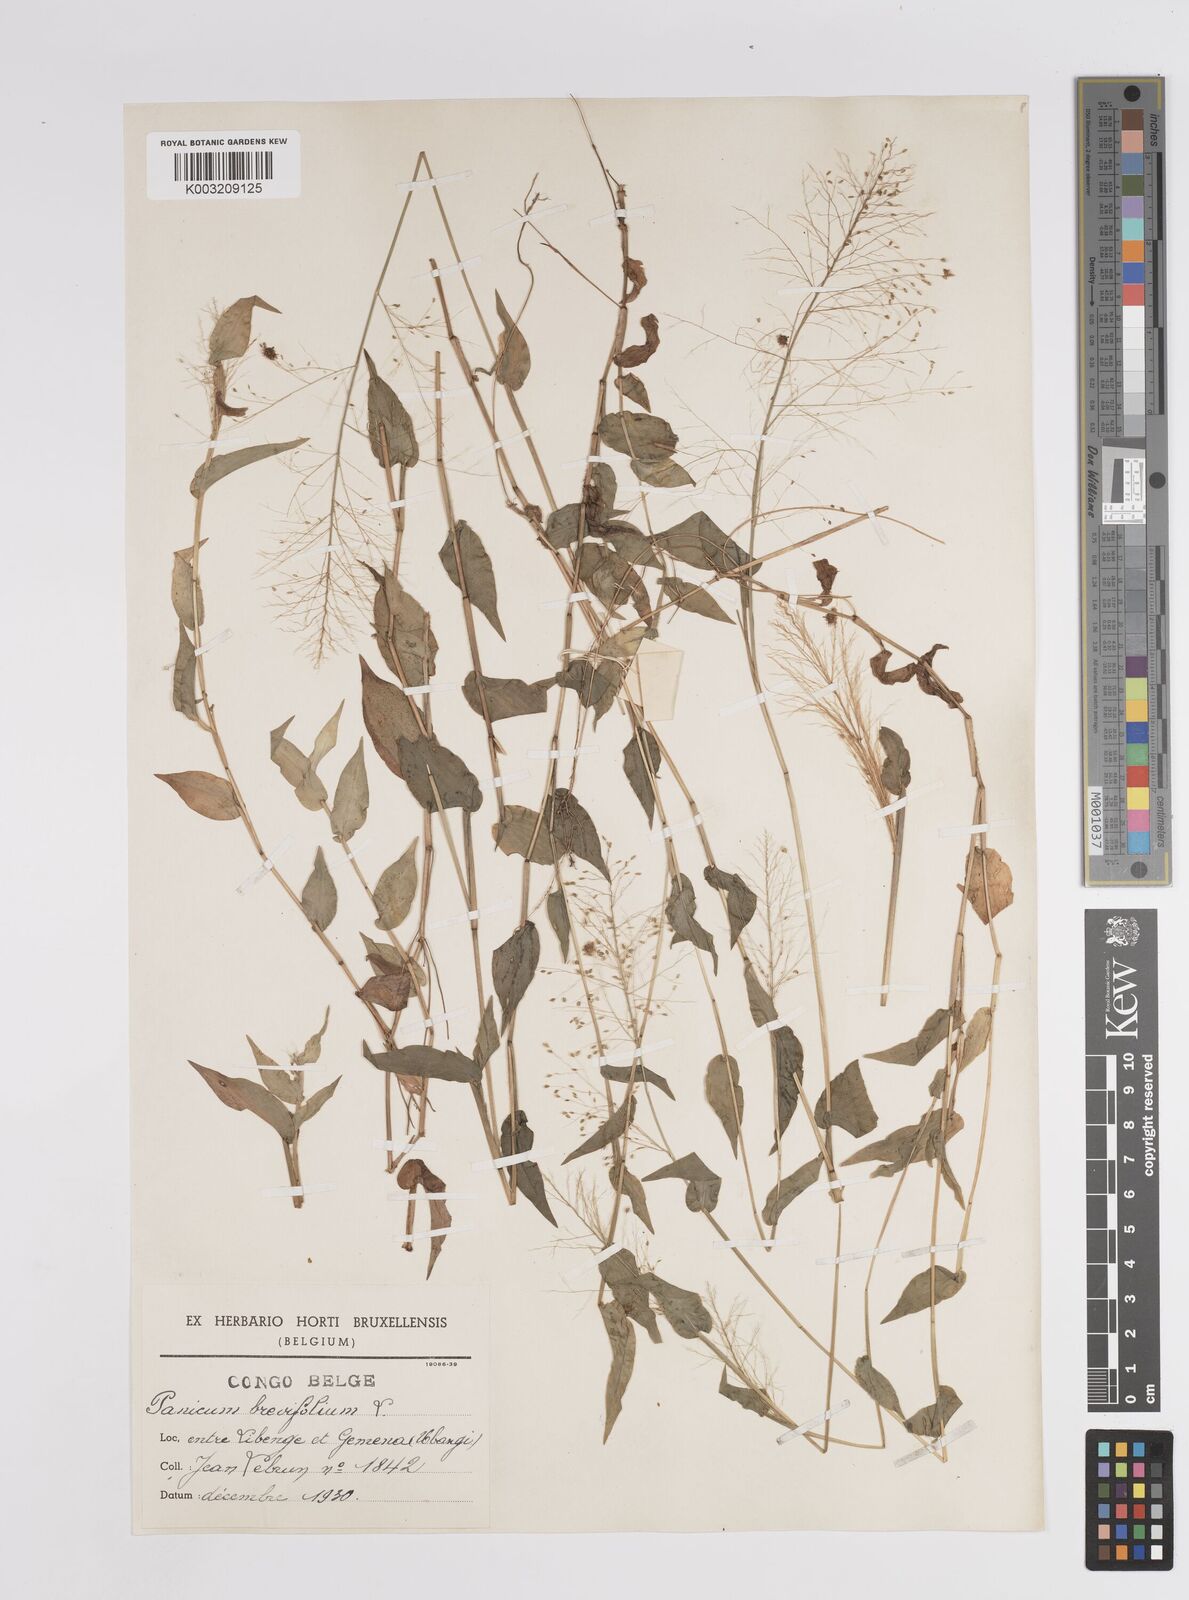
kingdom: Plantae
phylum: Tracheophyta
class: Liliopsida
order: Poales
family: Poaceae
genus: Panicum
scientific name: Panicum brevifolium
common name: Shortleaf panic grass
